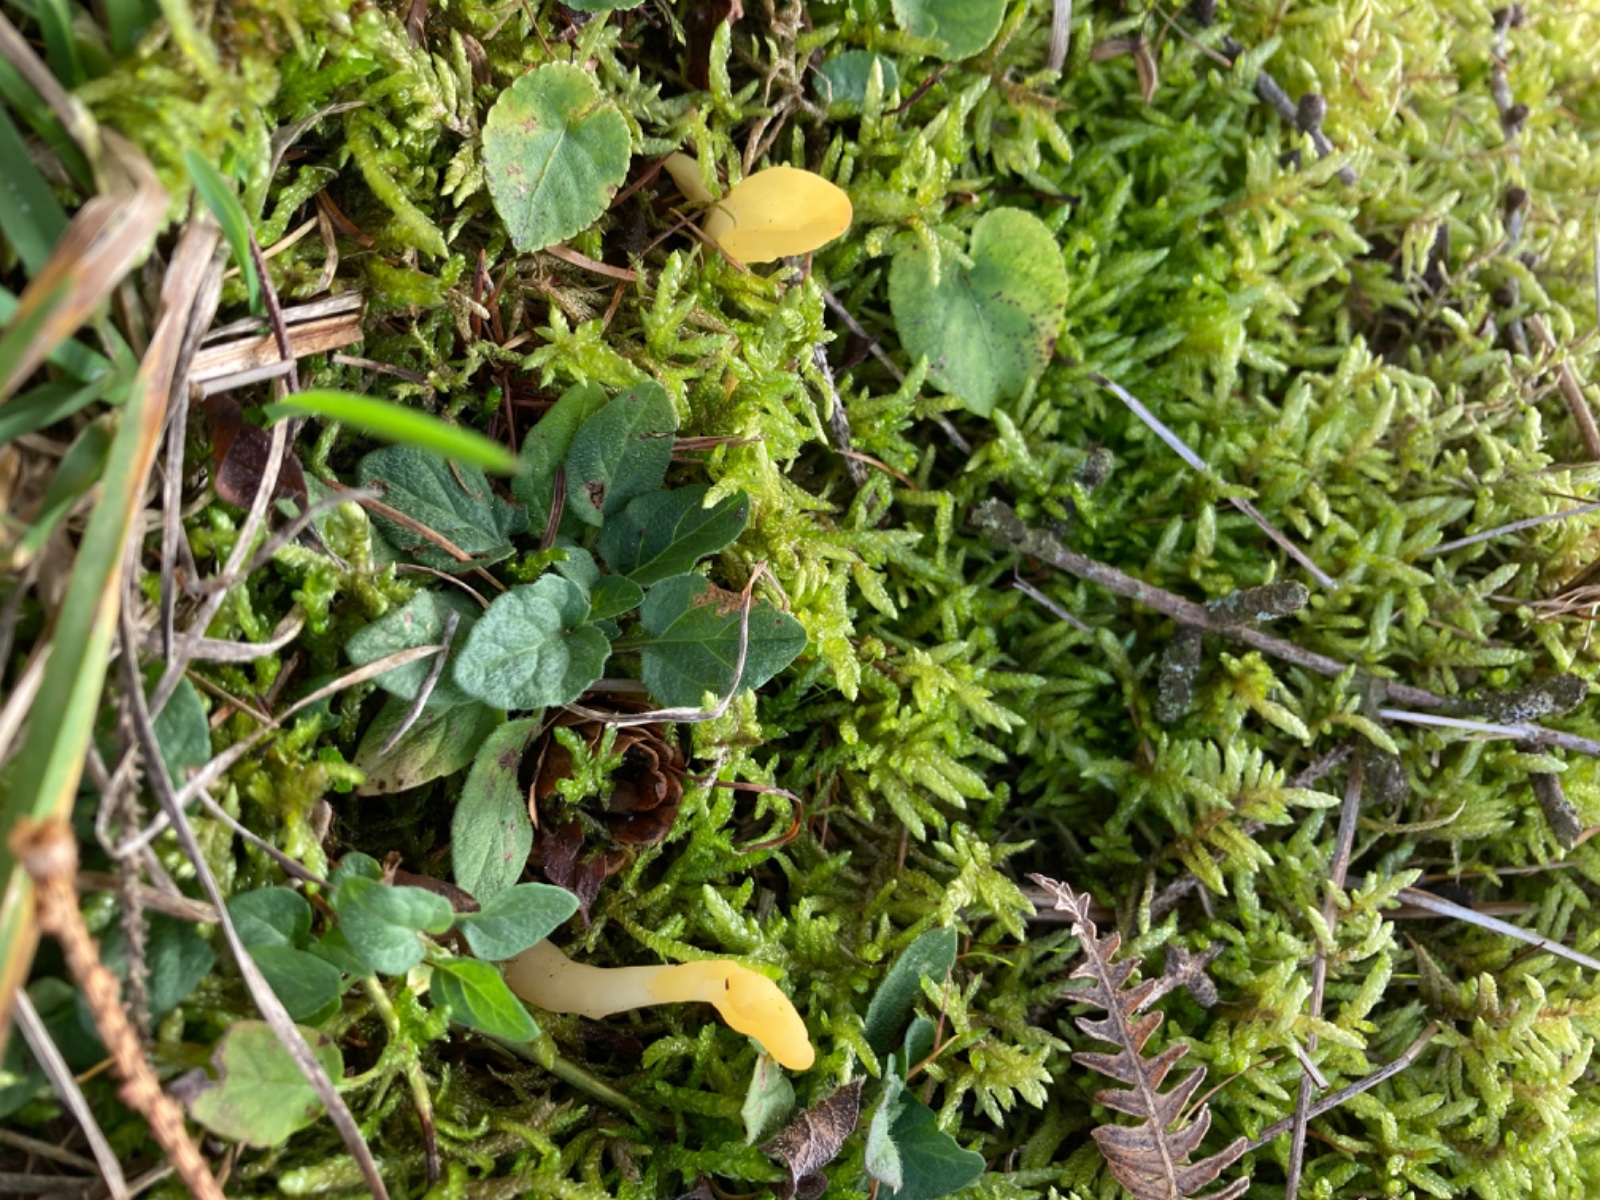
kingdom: Fungi
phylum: Ascomycota
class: Leotiomycetes
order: Rhytismatales
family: Cudoniaceae
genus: Spathularia
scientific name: Spathularia flavida
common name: gul spatelsvamp
